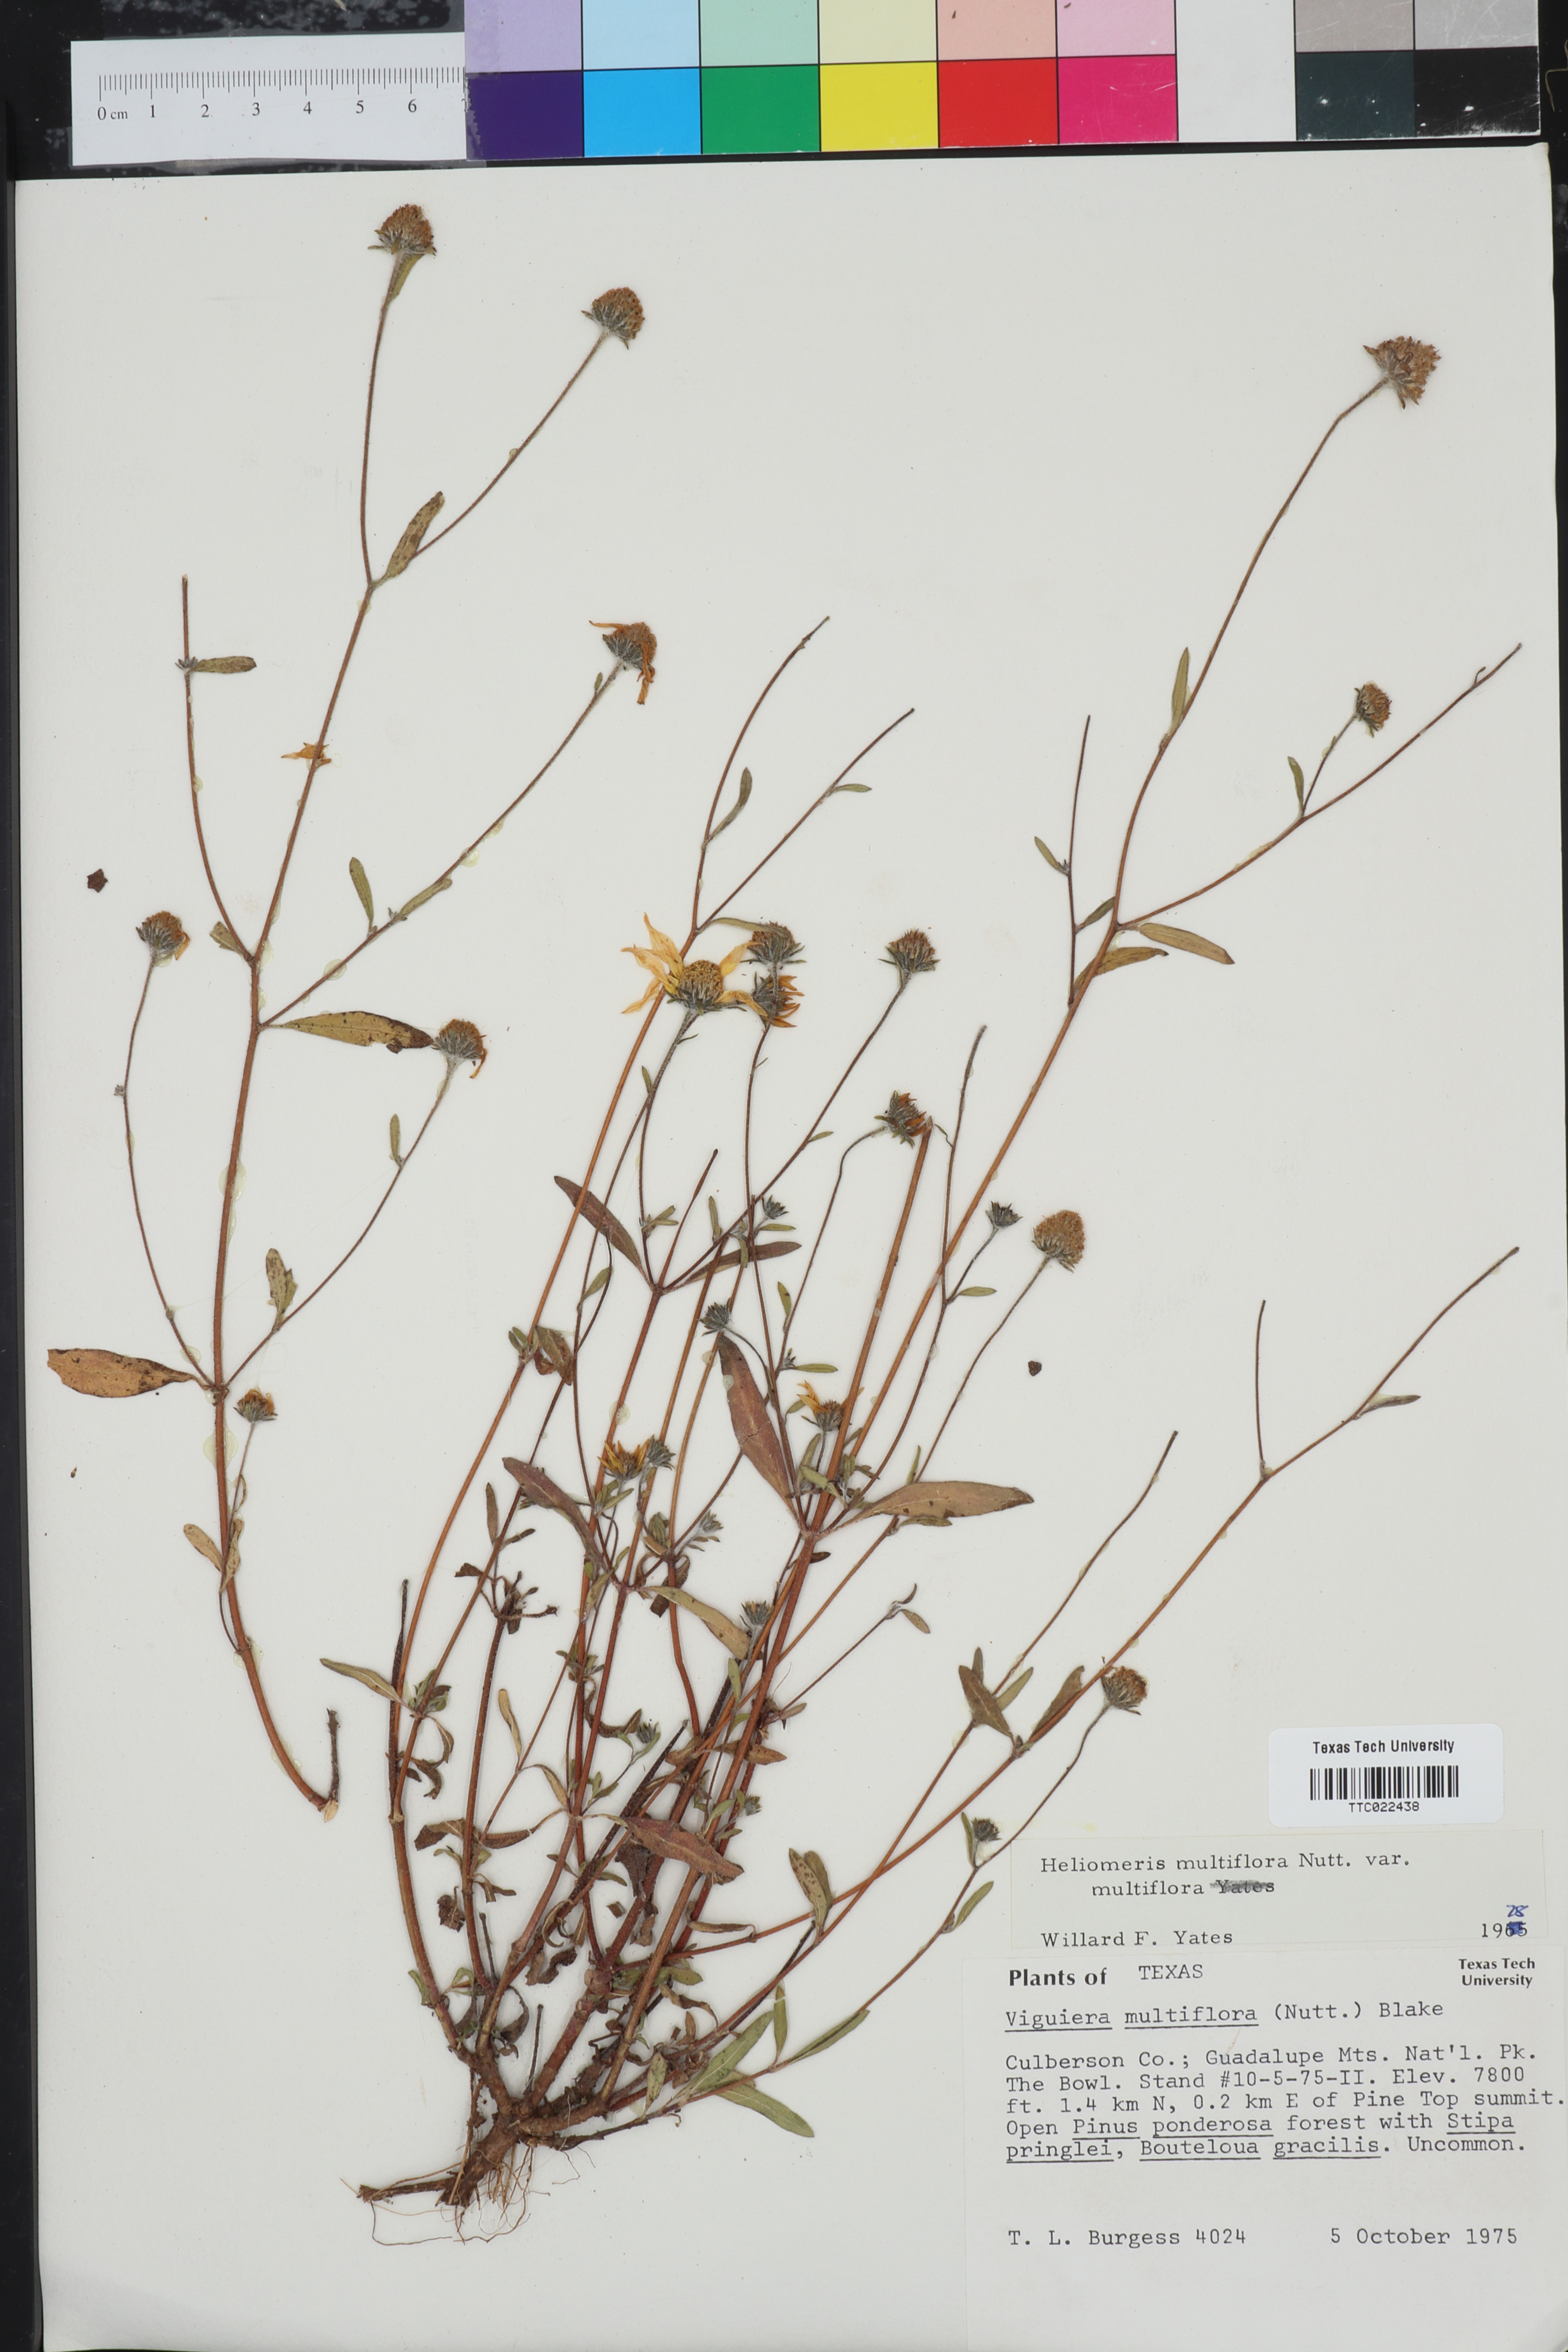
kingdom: Plantae
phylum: Tracheophyta
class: Magnoliopsida
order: Asterales
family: Asteraceae
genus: Heliomeris
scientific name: Heliomeris multiflora
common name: Showy goldeneye
